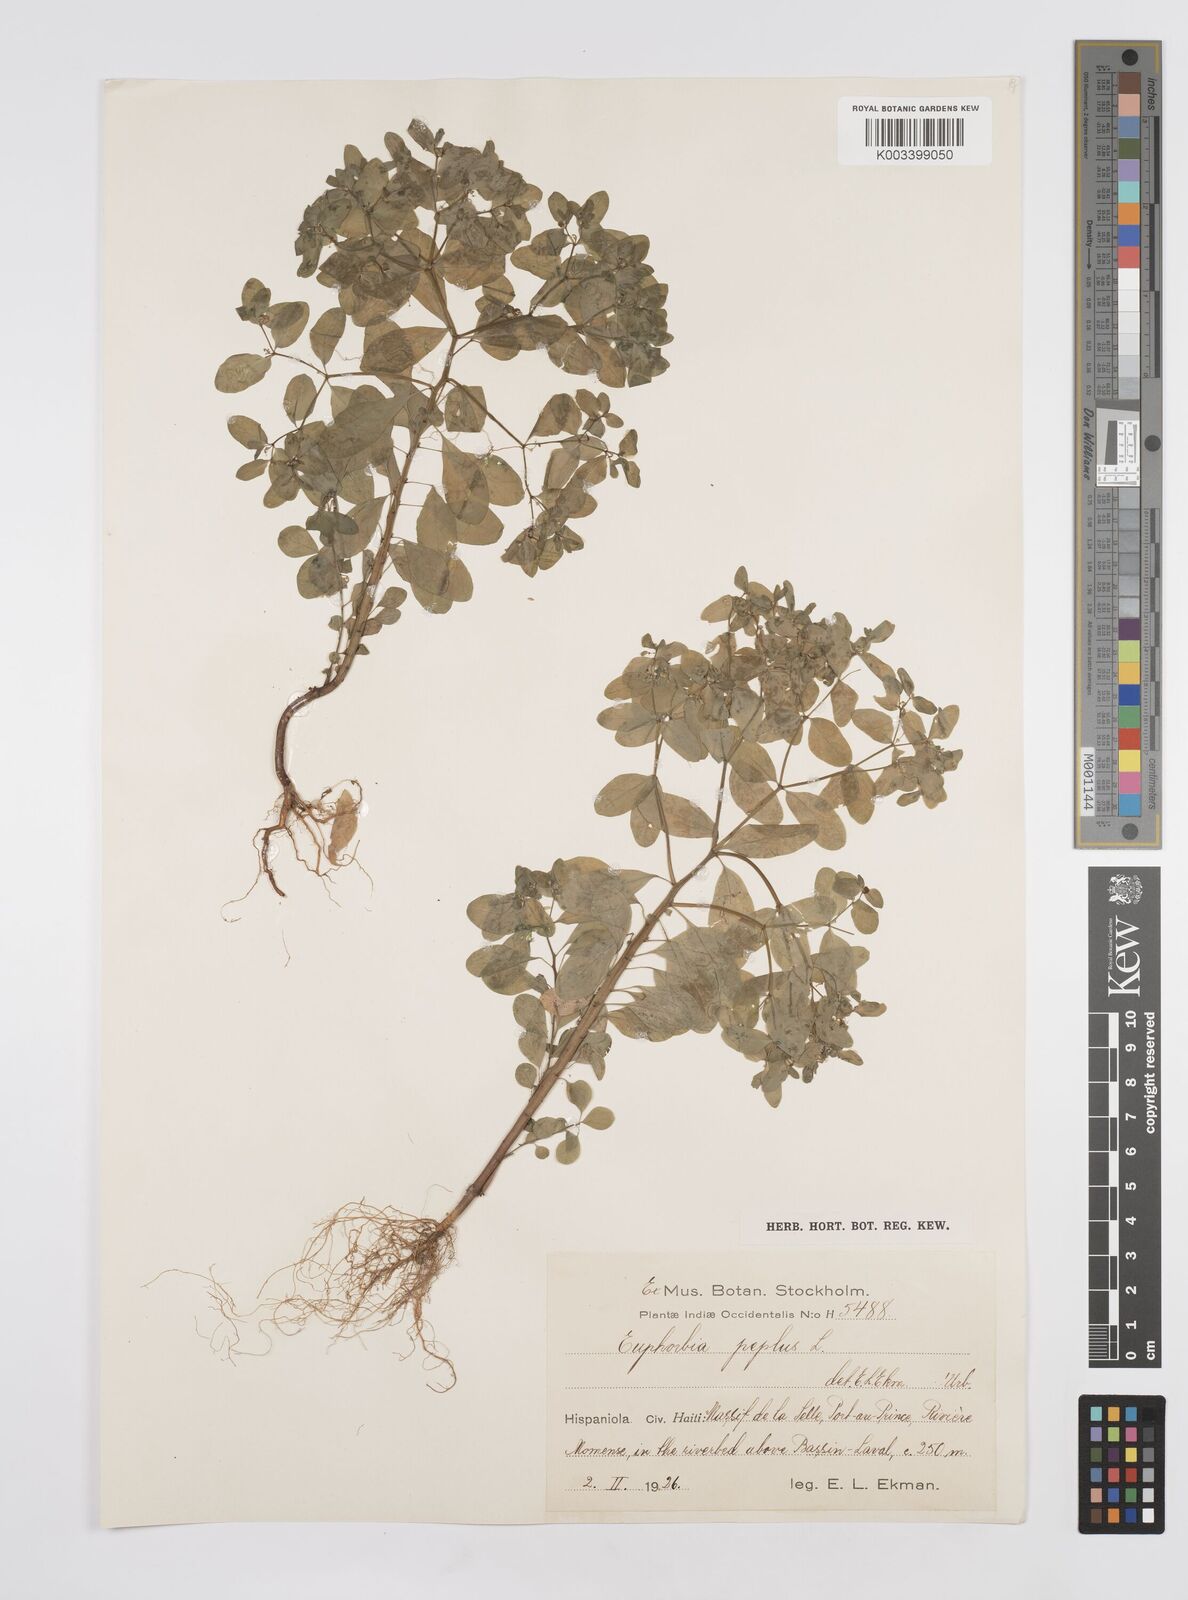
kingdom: Plantae
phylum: Tracheophyta
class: Magnoliopsida
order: Malpighiales
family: Euphorbiaceae
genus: Euphorbia
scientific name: Euphorbia peplus
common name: Petty spurge
